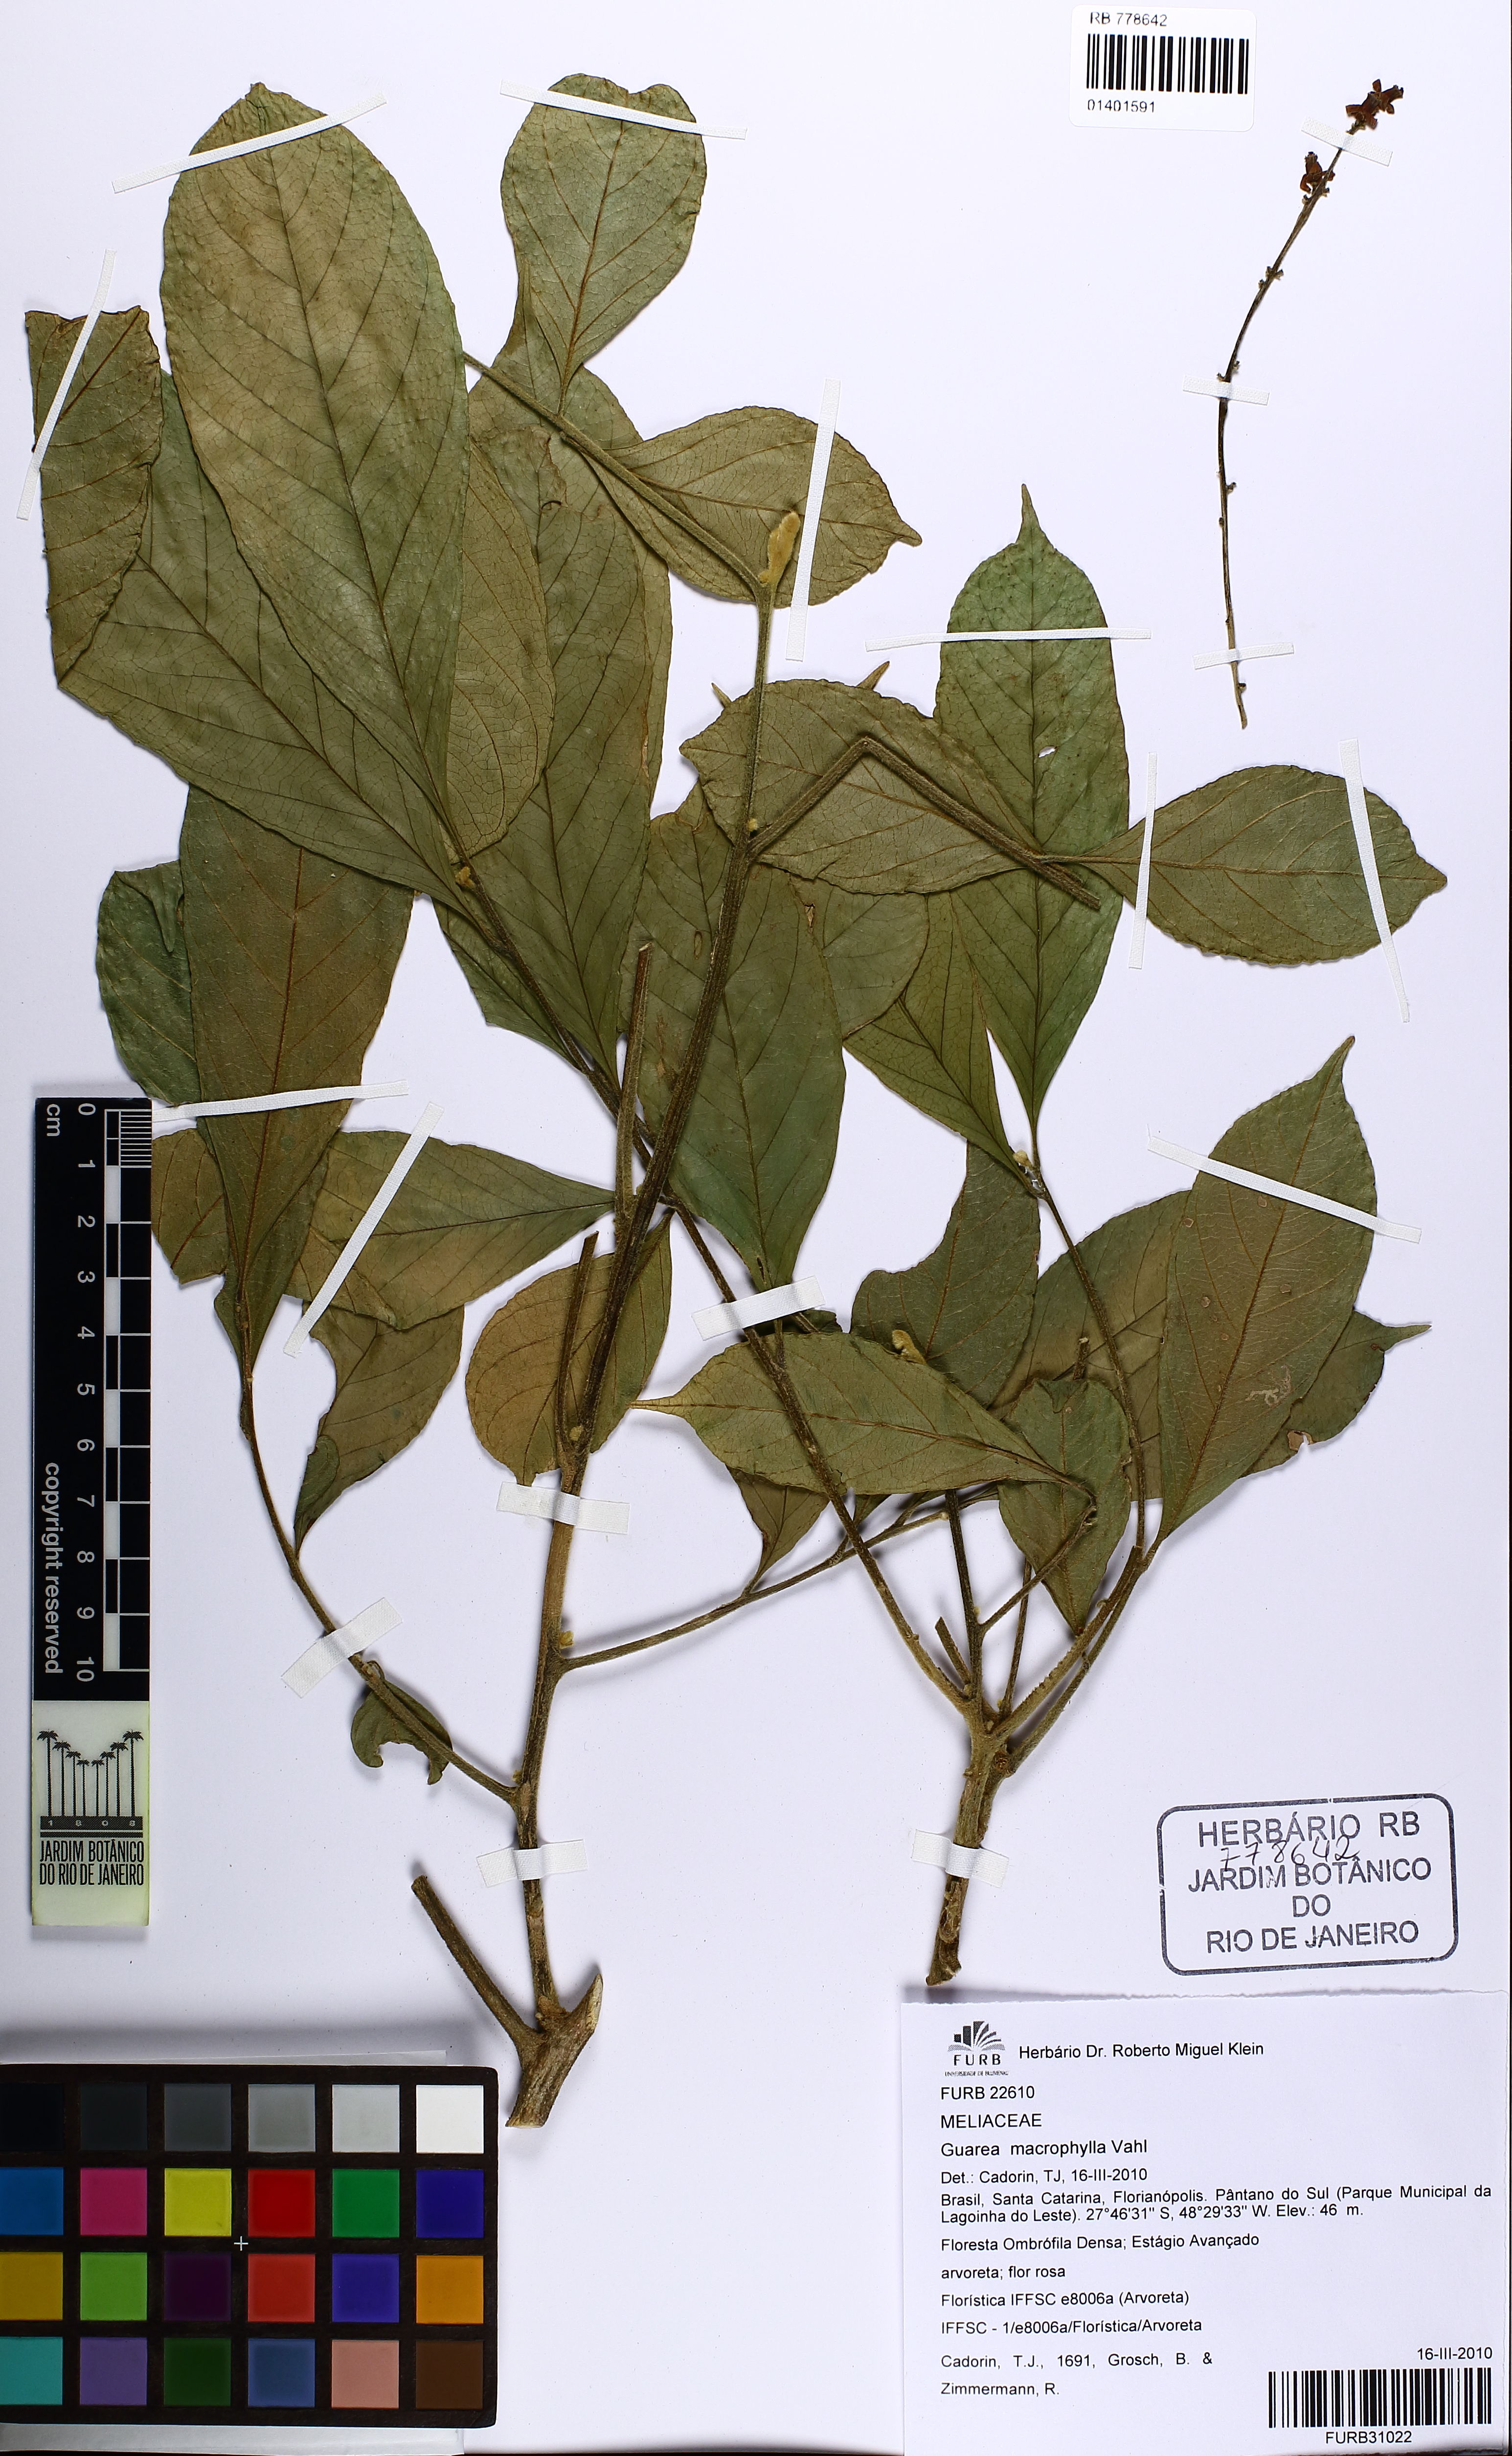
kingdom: Plantae
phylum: Tracheophyta
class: Magnoliopsida
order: Sapindales
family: Meliaceae
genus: Guarea
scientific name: Guarea macrophylla
